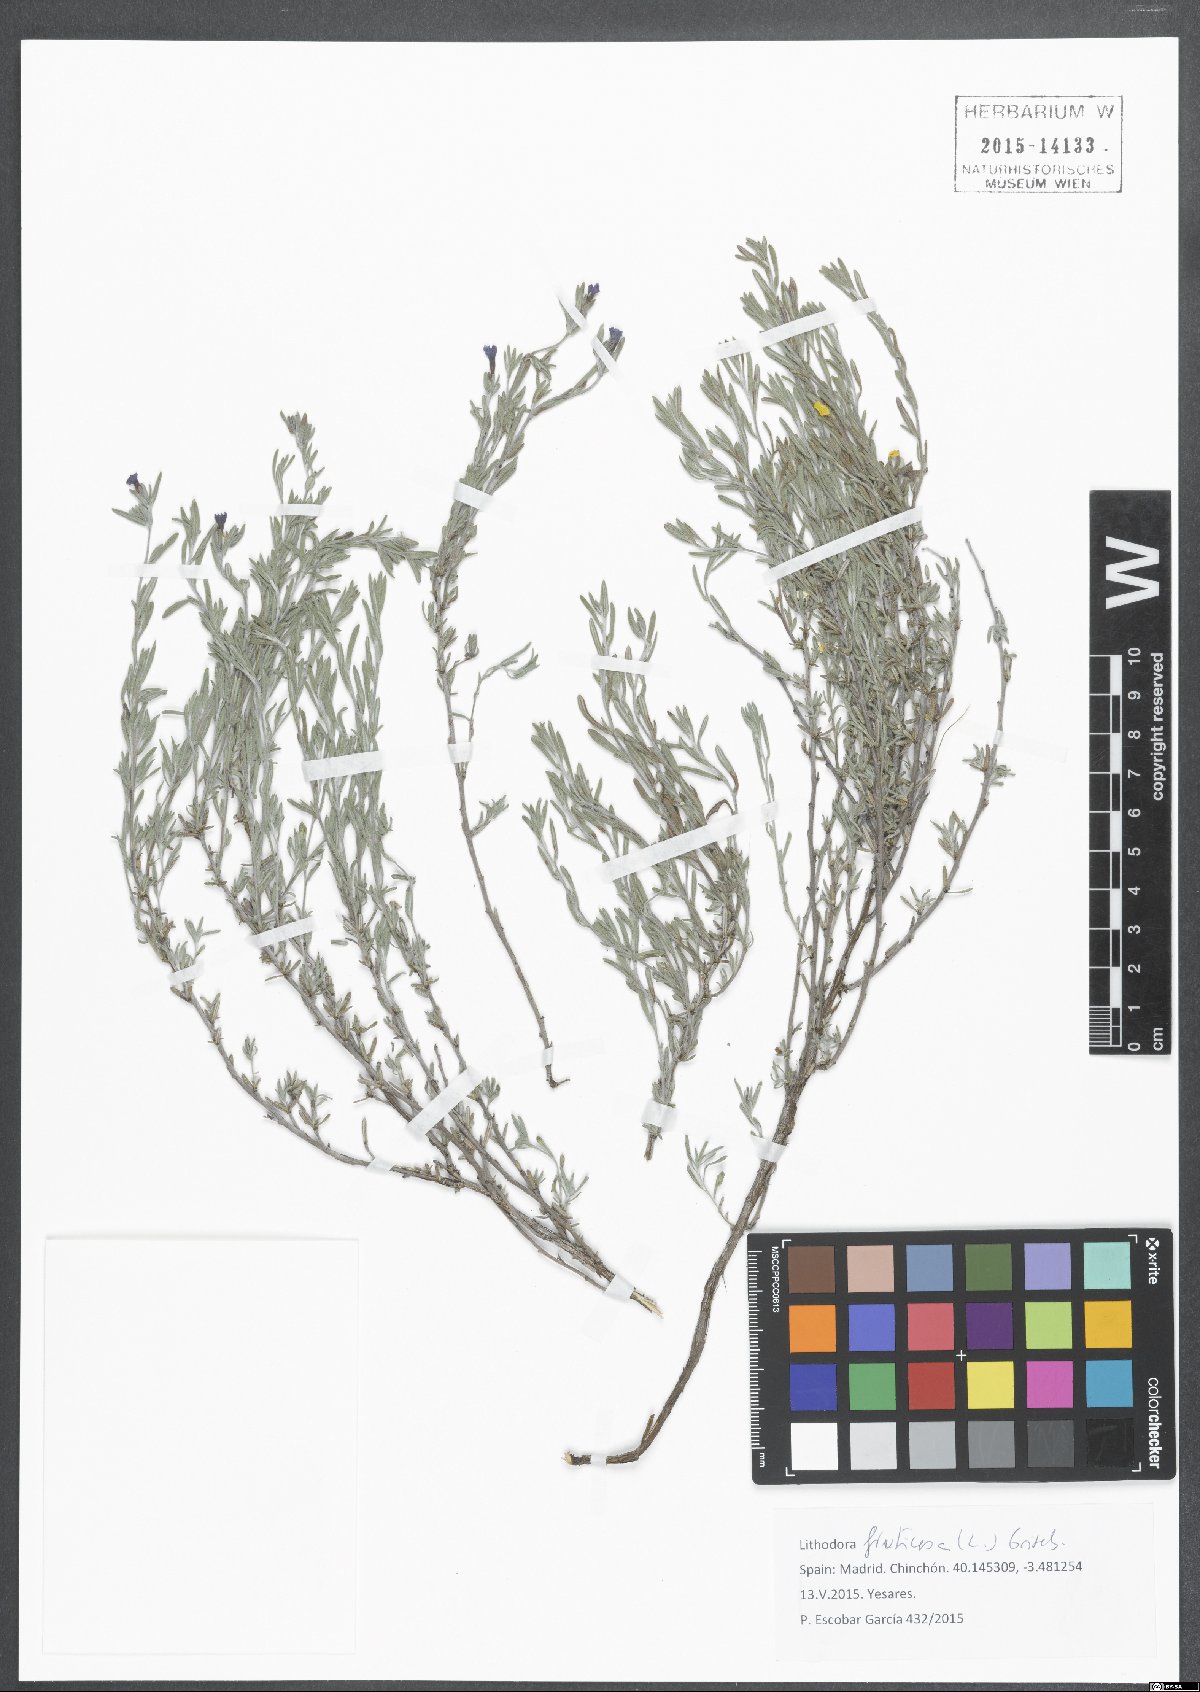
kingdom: Plantae
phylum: Tracheophyta
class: Magnoliopsida
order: Boraginales
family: Boraginaceae
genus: Lithodora
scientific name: Lithodora fruticosa
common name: Shrubby gromwell
